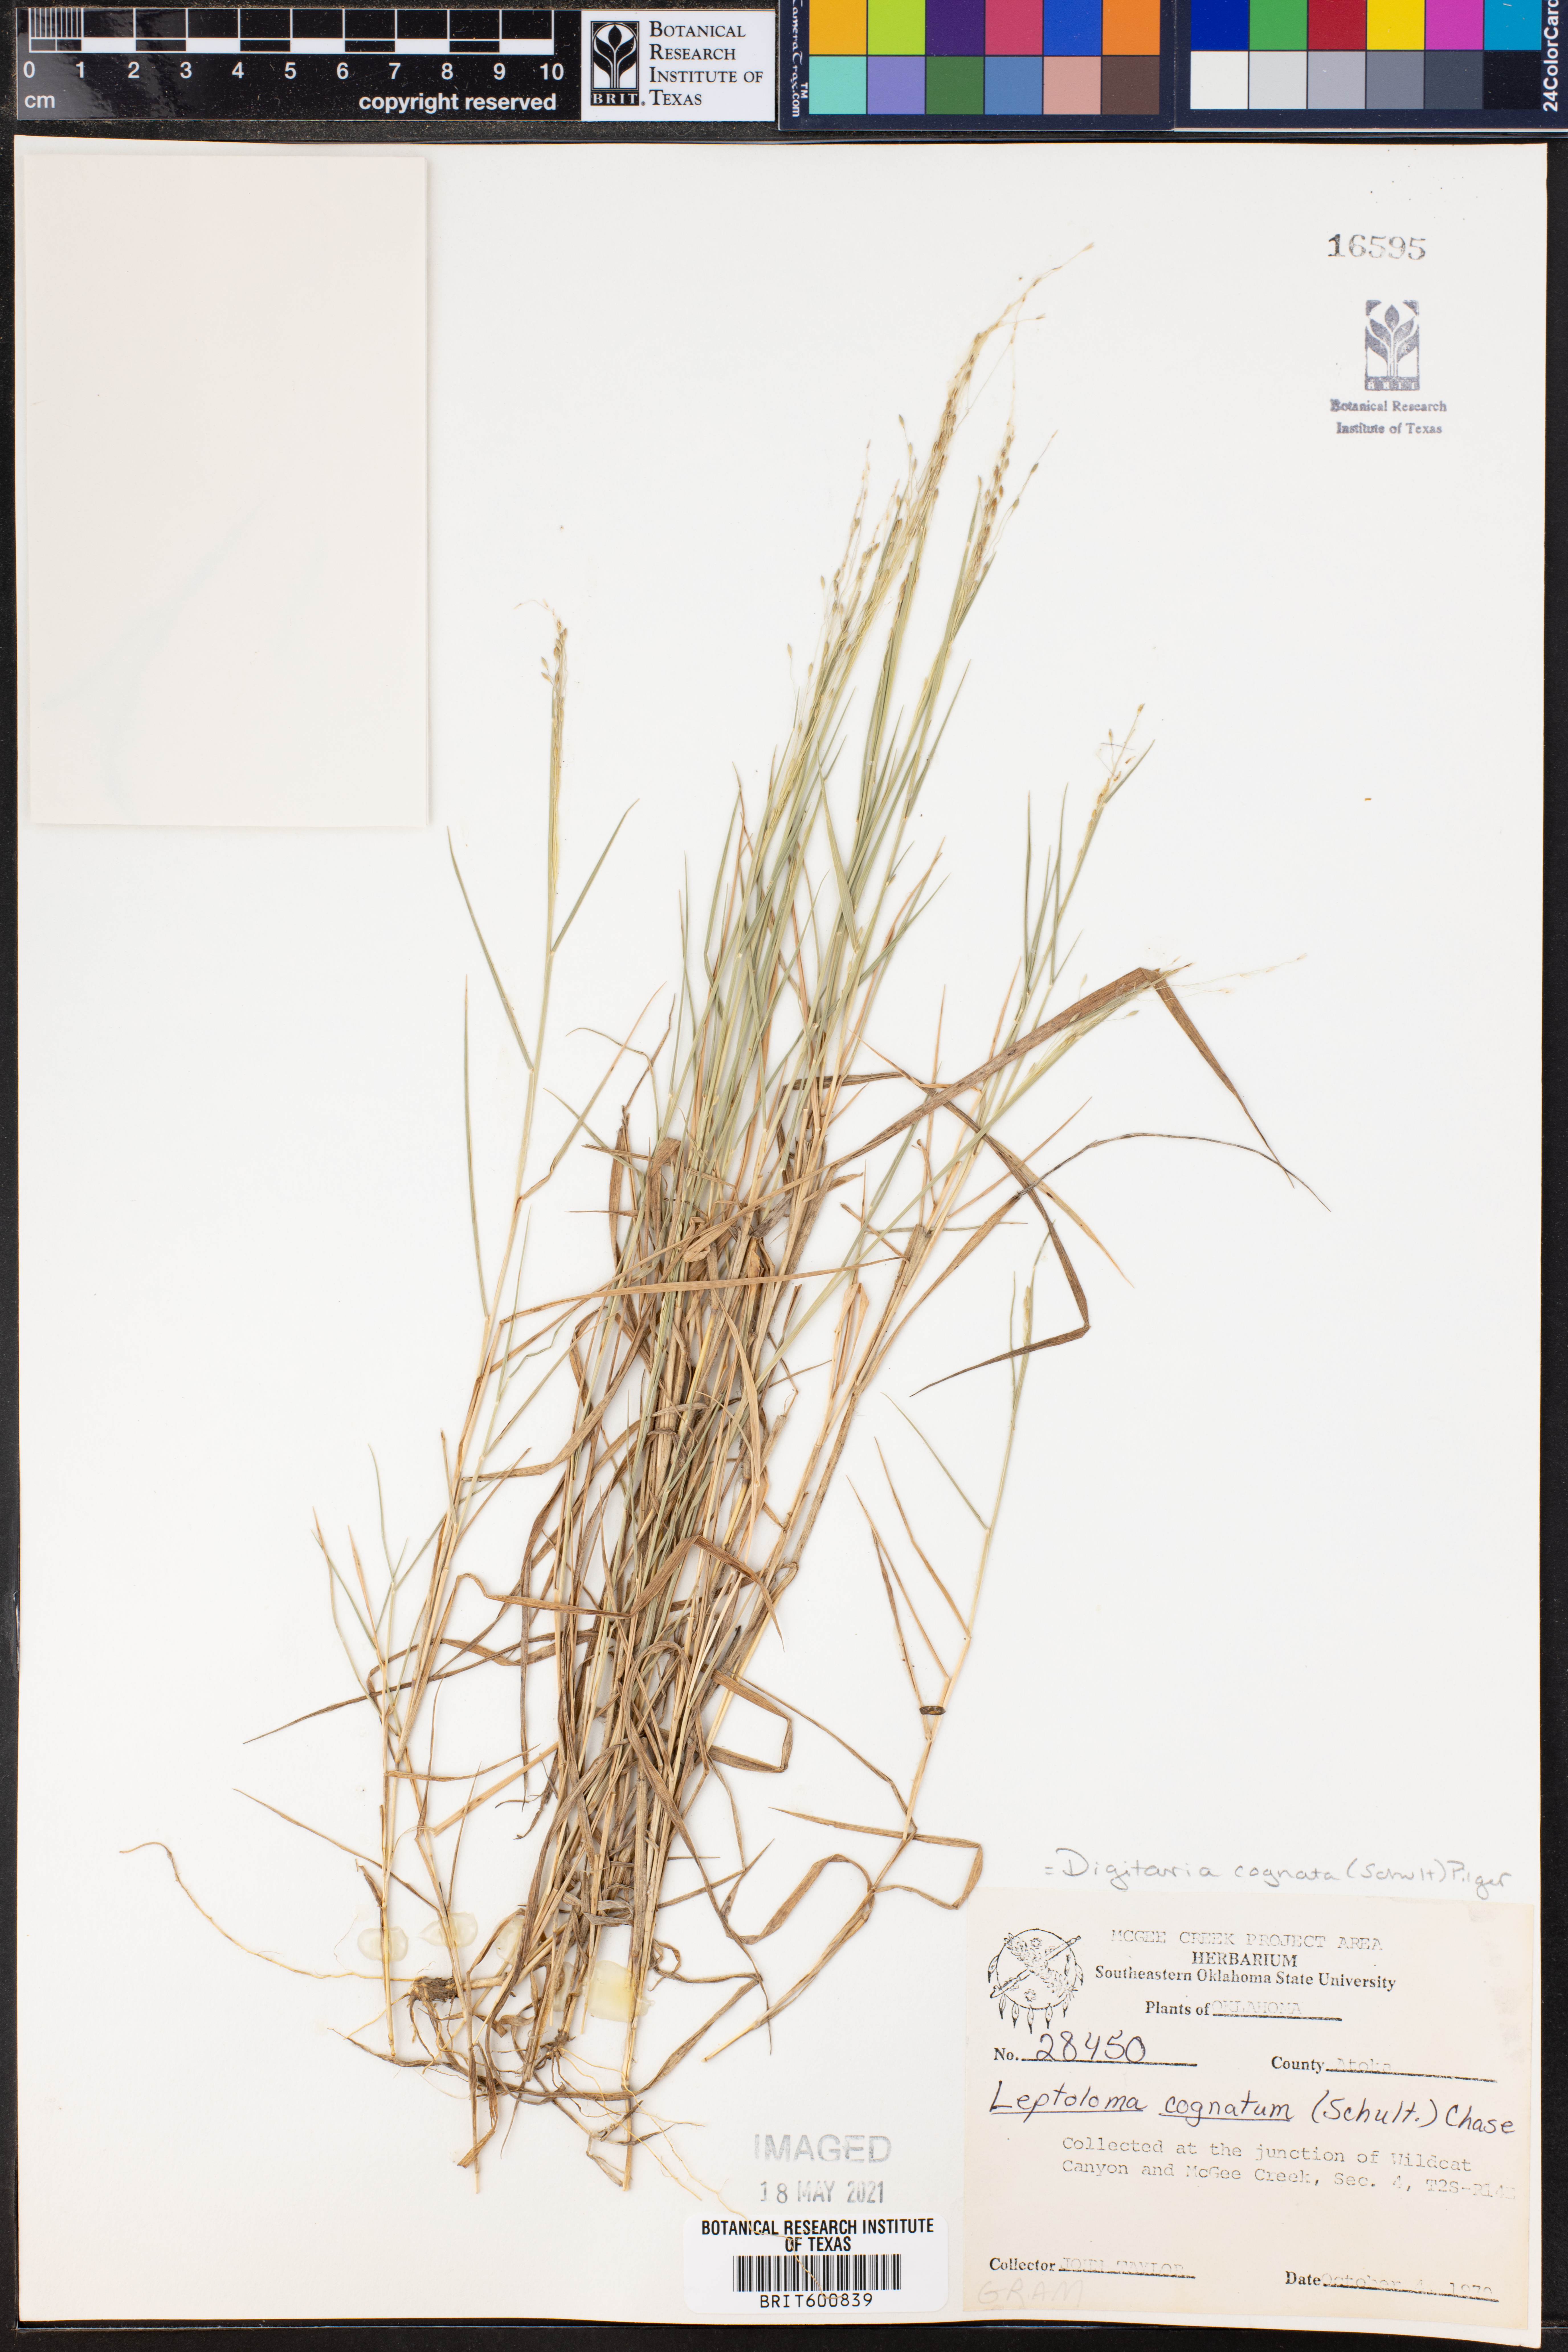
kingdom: Plantae
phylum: Tracheophyta
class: Liliopsida
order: Poales
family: Poaceae
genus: Digitaria
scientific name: Digitaria cognata
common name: Fall witchgrass
